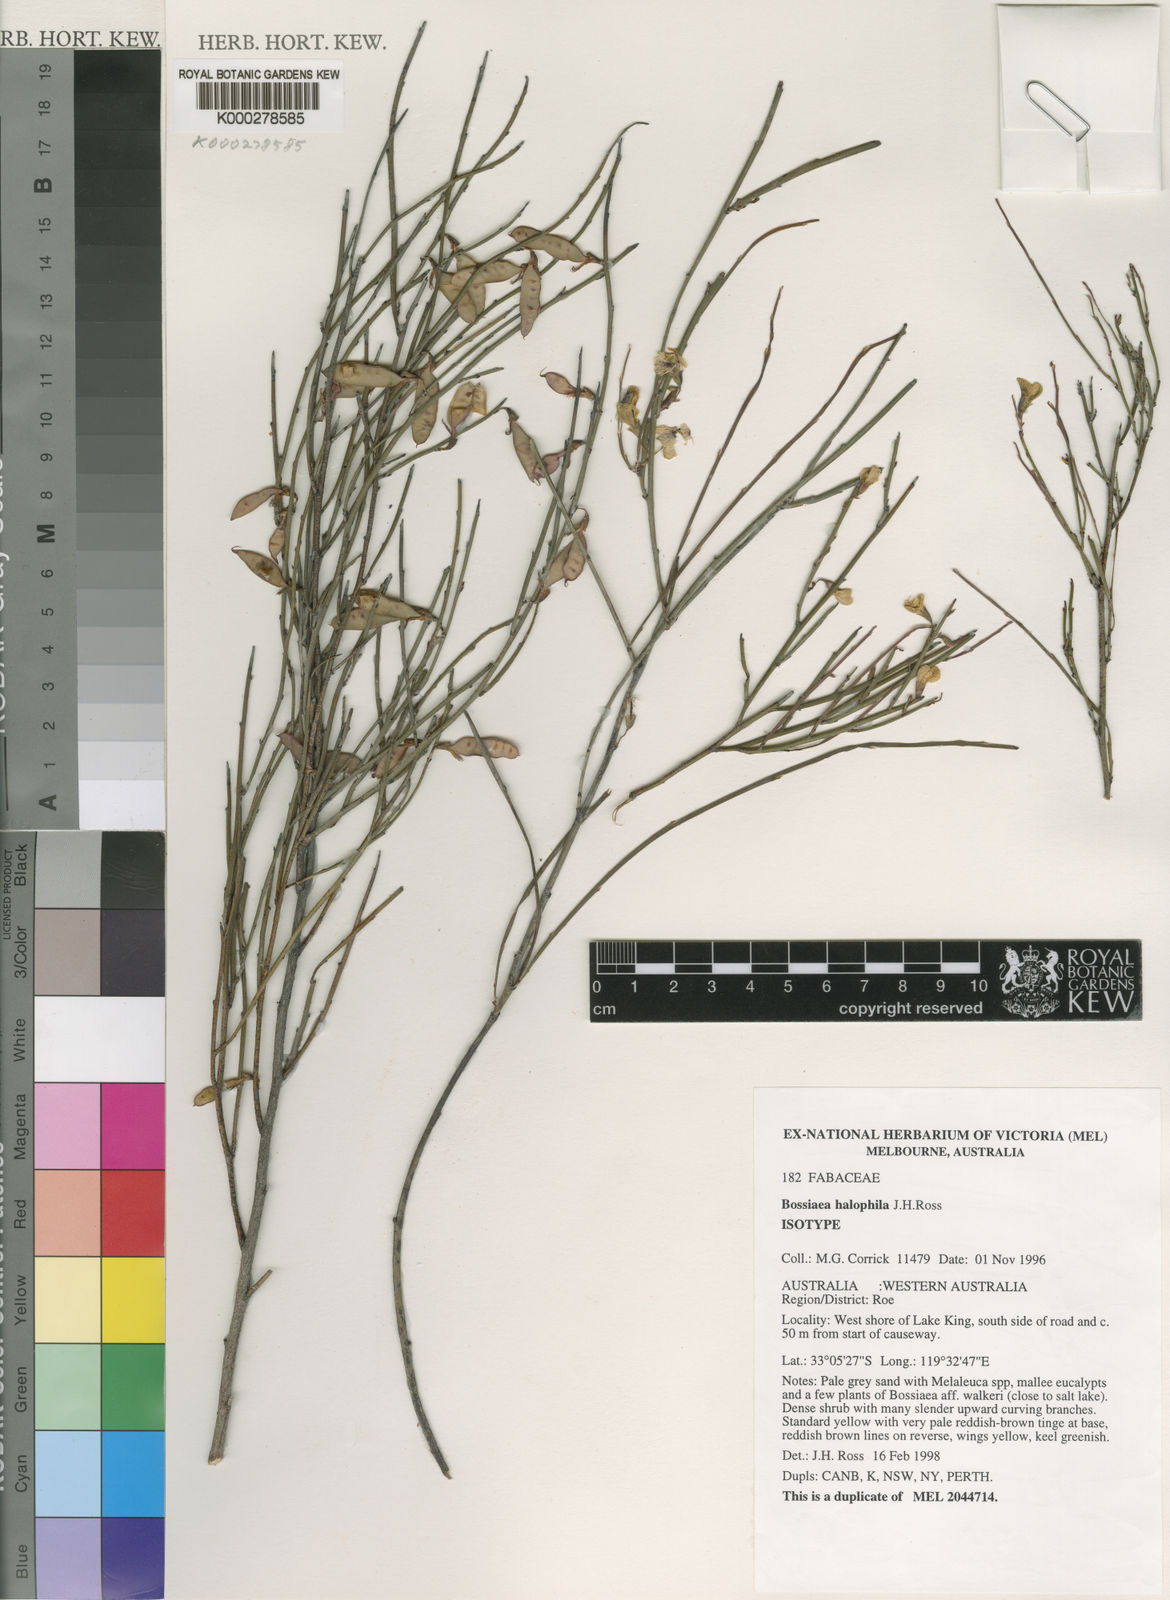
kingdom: Plantae
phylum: Tracheophyta
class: Magnoliopsida
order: Fabales
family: Fabaceae
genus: Bossiaea
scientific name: Bossiaea halophila
